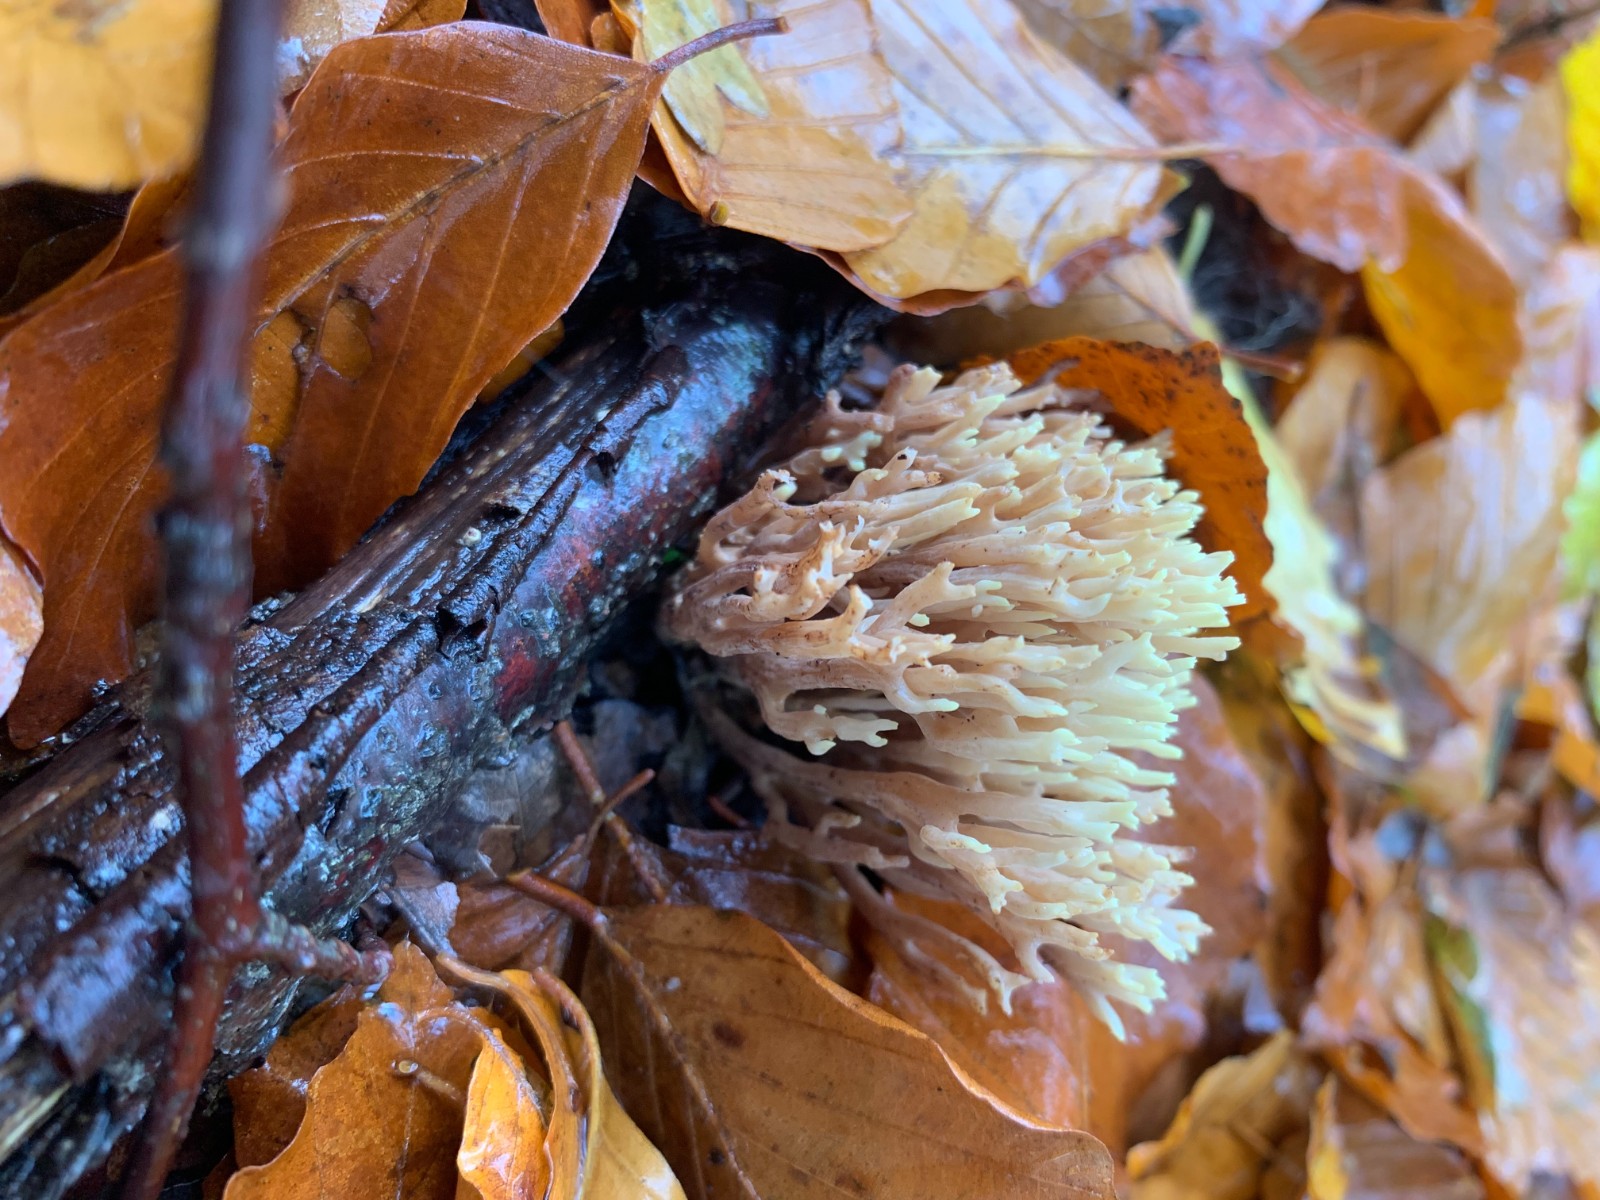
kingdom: Fungi
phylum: Basidiomycota
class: Agaricomycetes
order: Gomphales
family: Gomphaceae
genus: Ramaria
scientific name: Ramaria stricta
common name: rank koralsvamp
